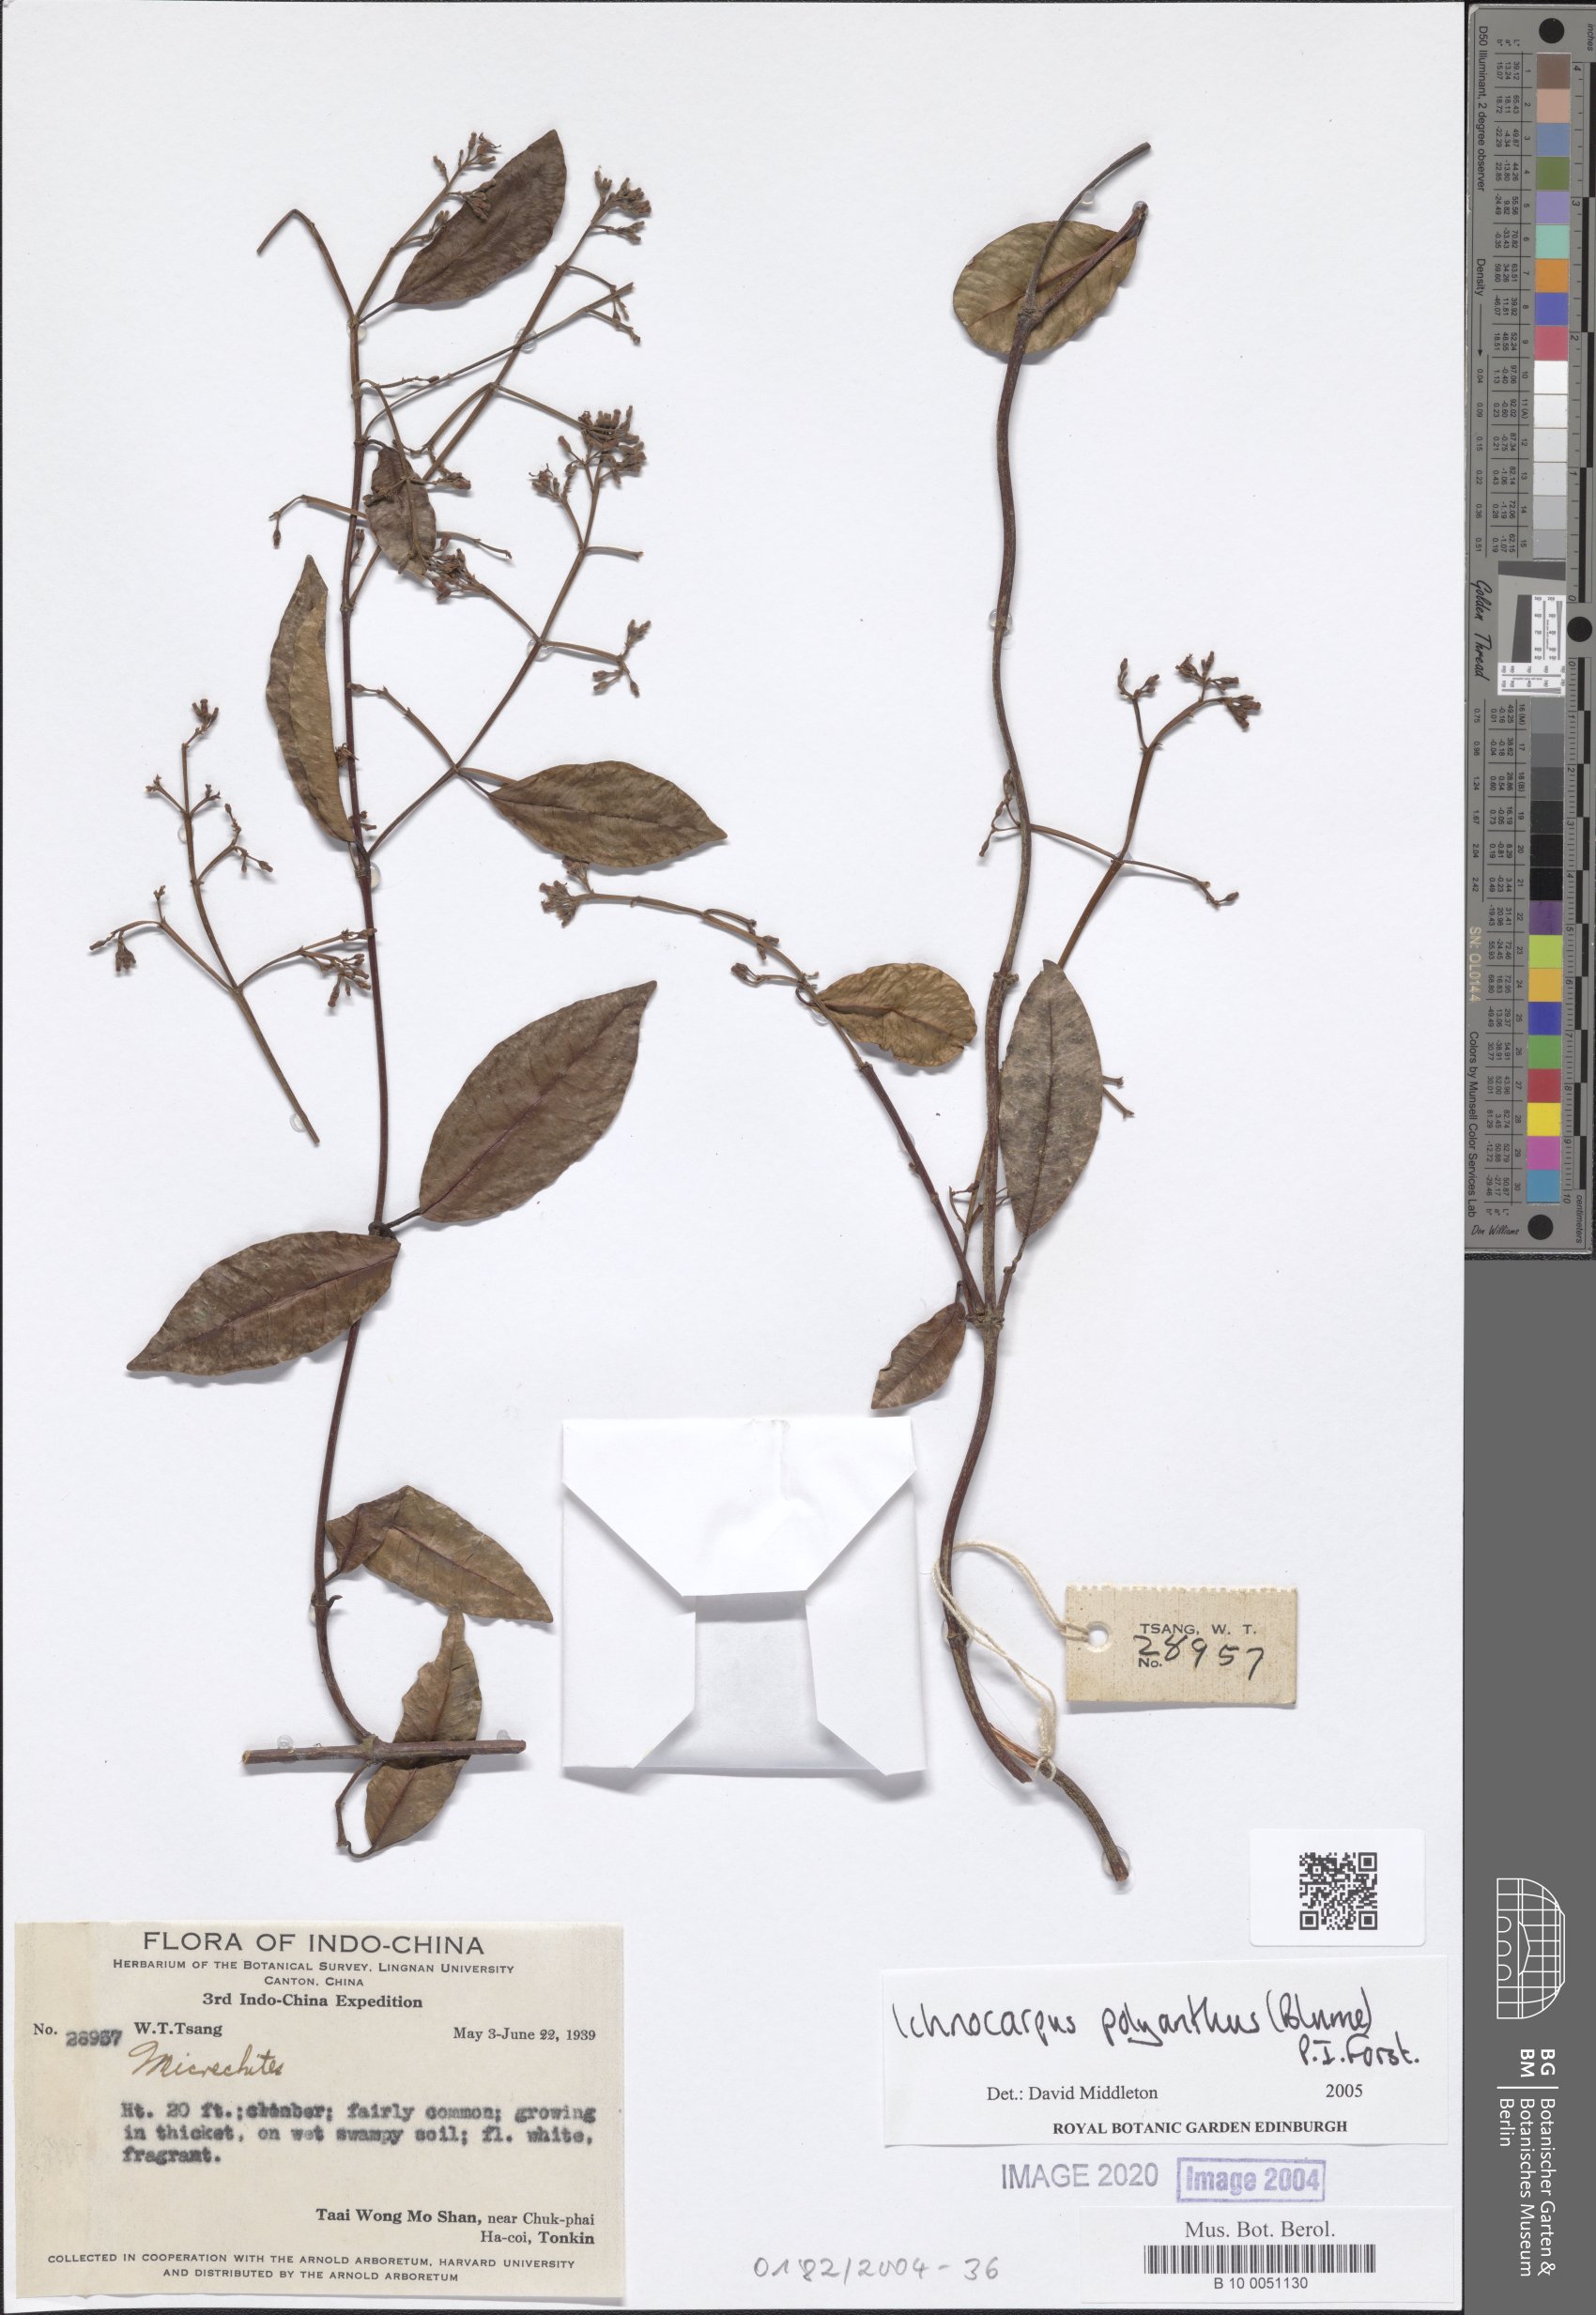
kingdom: Plantae
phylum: Tracheophyta
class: Magnoliopsida
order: Gentianales
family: Apocynaceae
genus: Micrechites
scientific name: Micrechites
